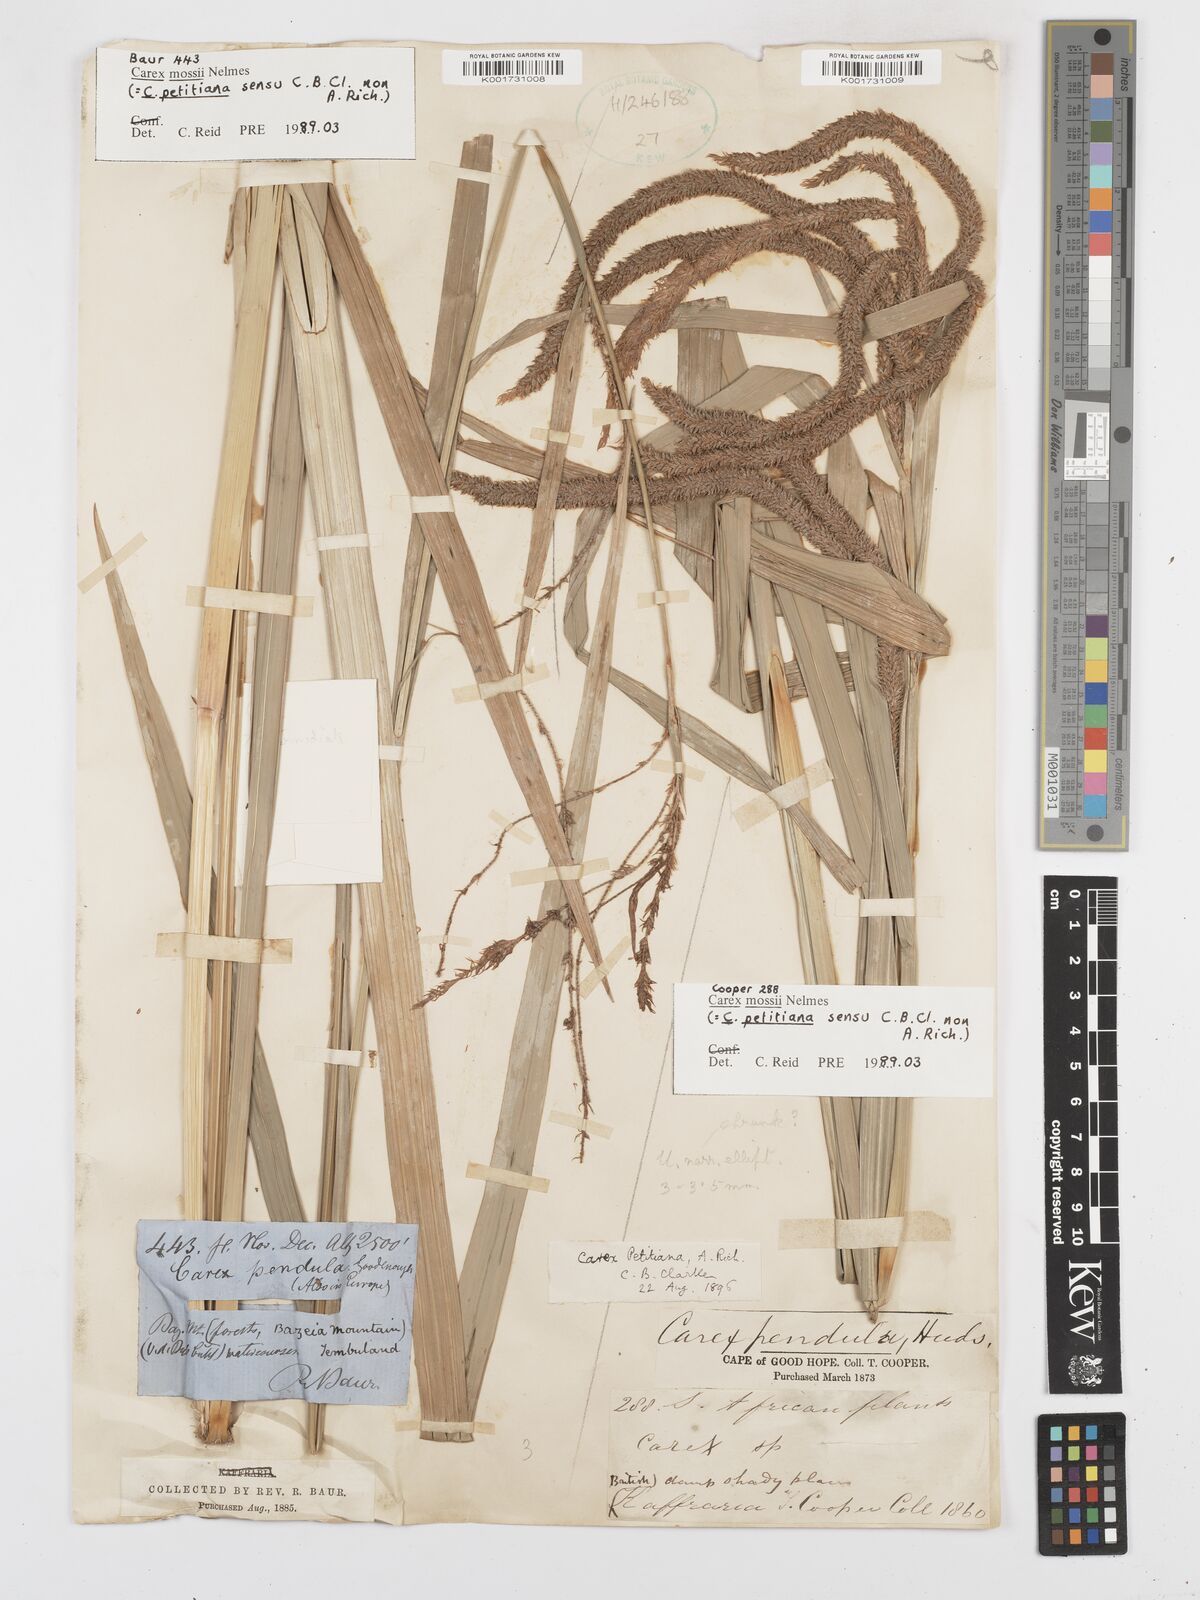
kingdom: Plantae
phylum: Tracheophyta
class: Liliopsida
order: Poales
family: Cyperaceae
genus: Carex
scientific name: Carex petitiana
